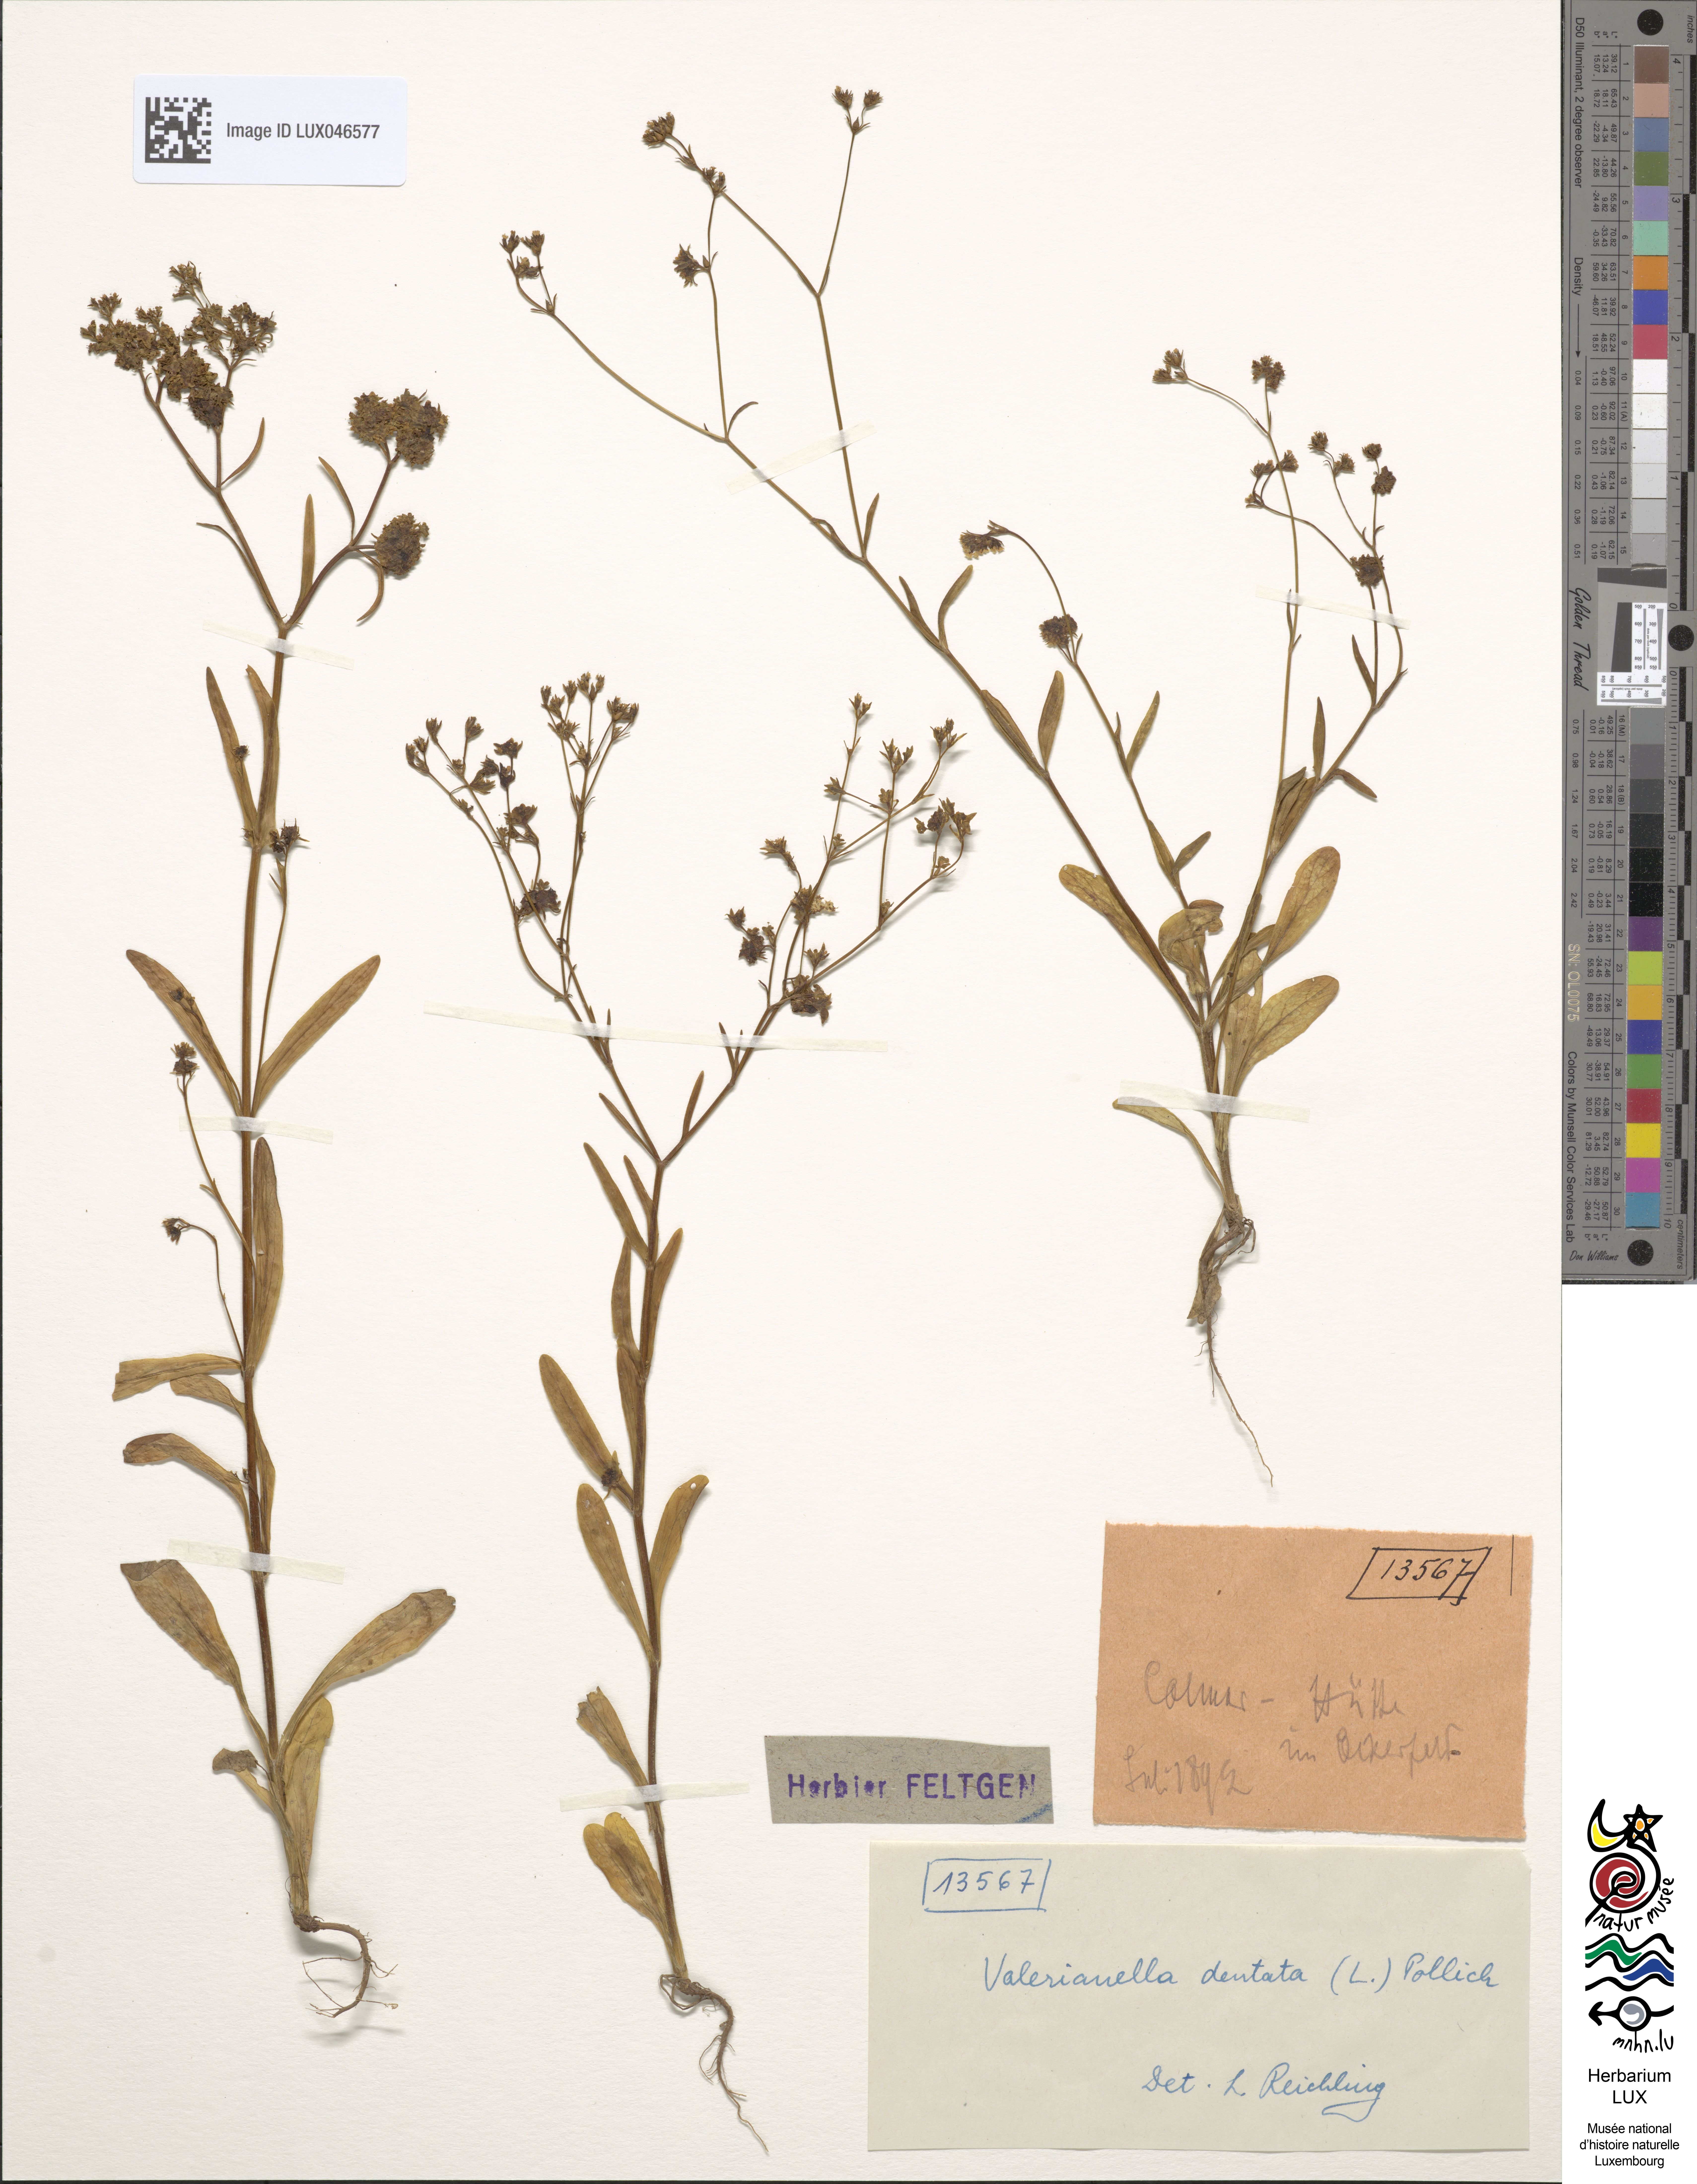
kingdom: Plantae
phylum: Tracheophyta
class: Magnoliopsida
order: Dipsacales
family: Caprifoliaceae
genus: Valerianella
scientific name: Valerianella dentata
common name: Narrow-fruited cornsalad
